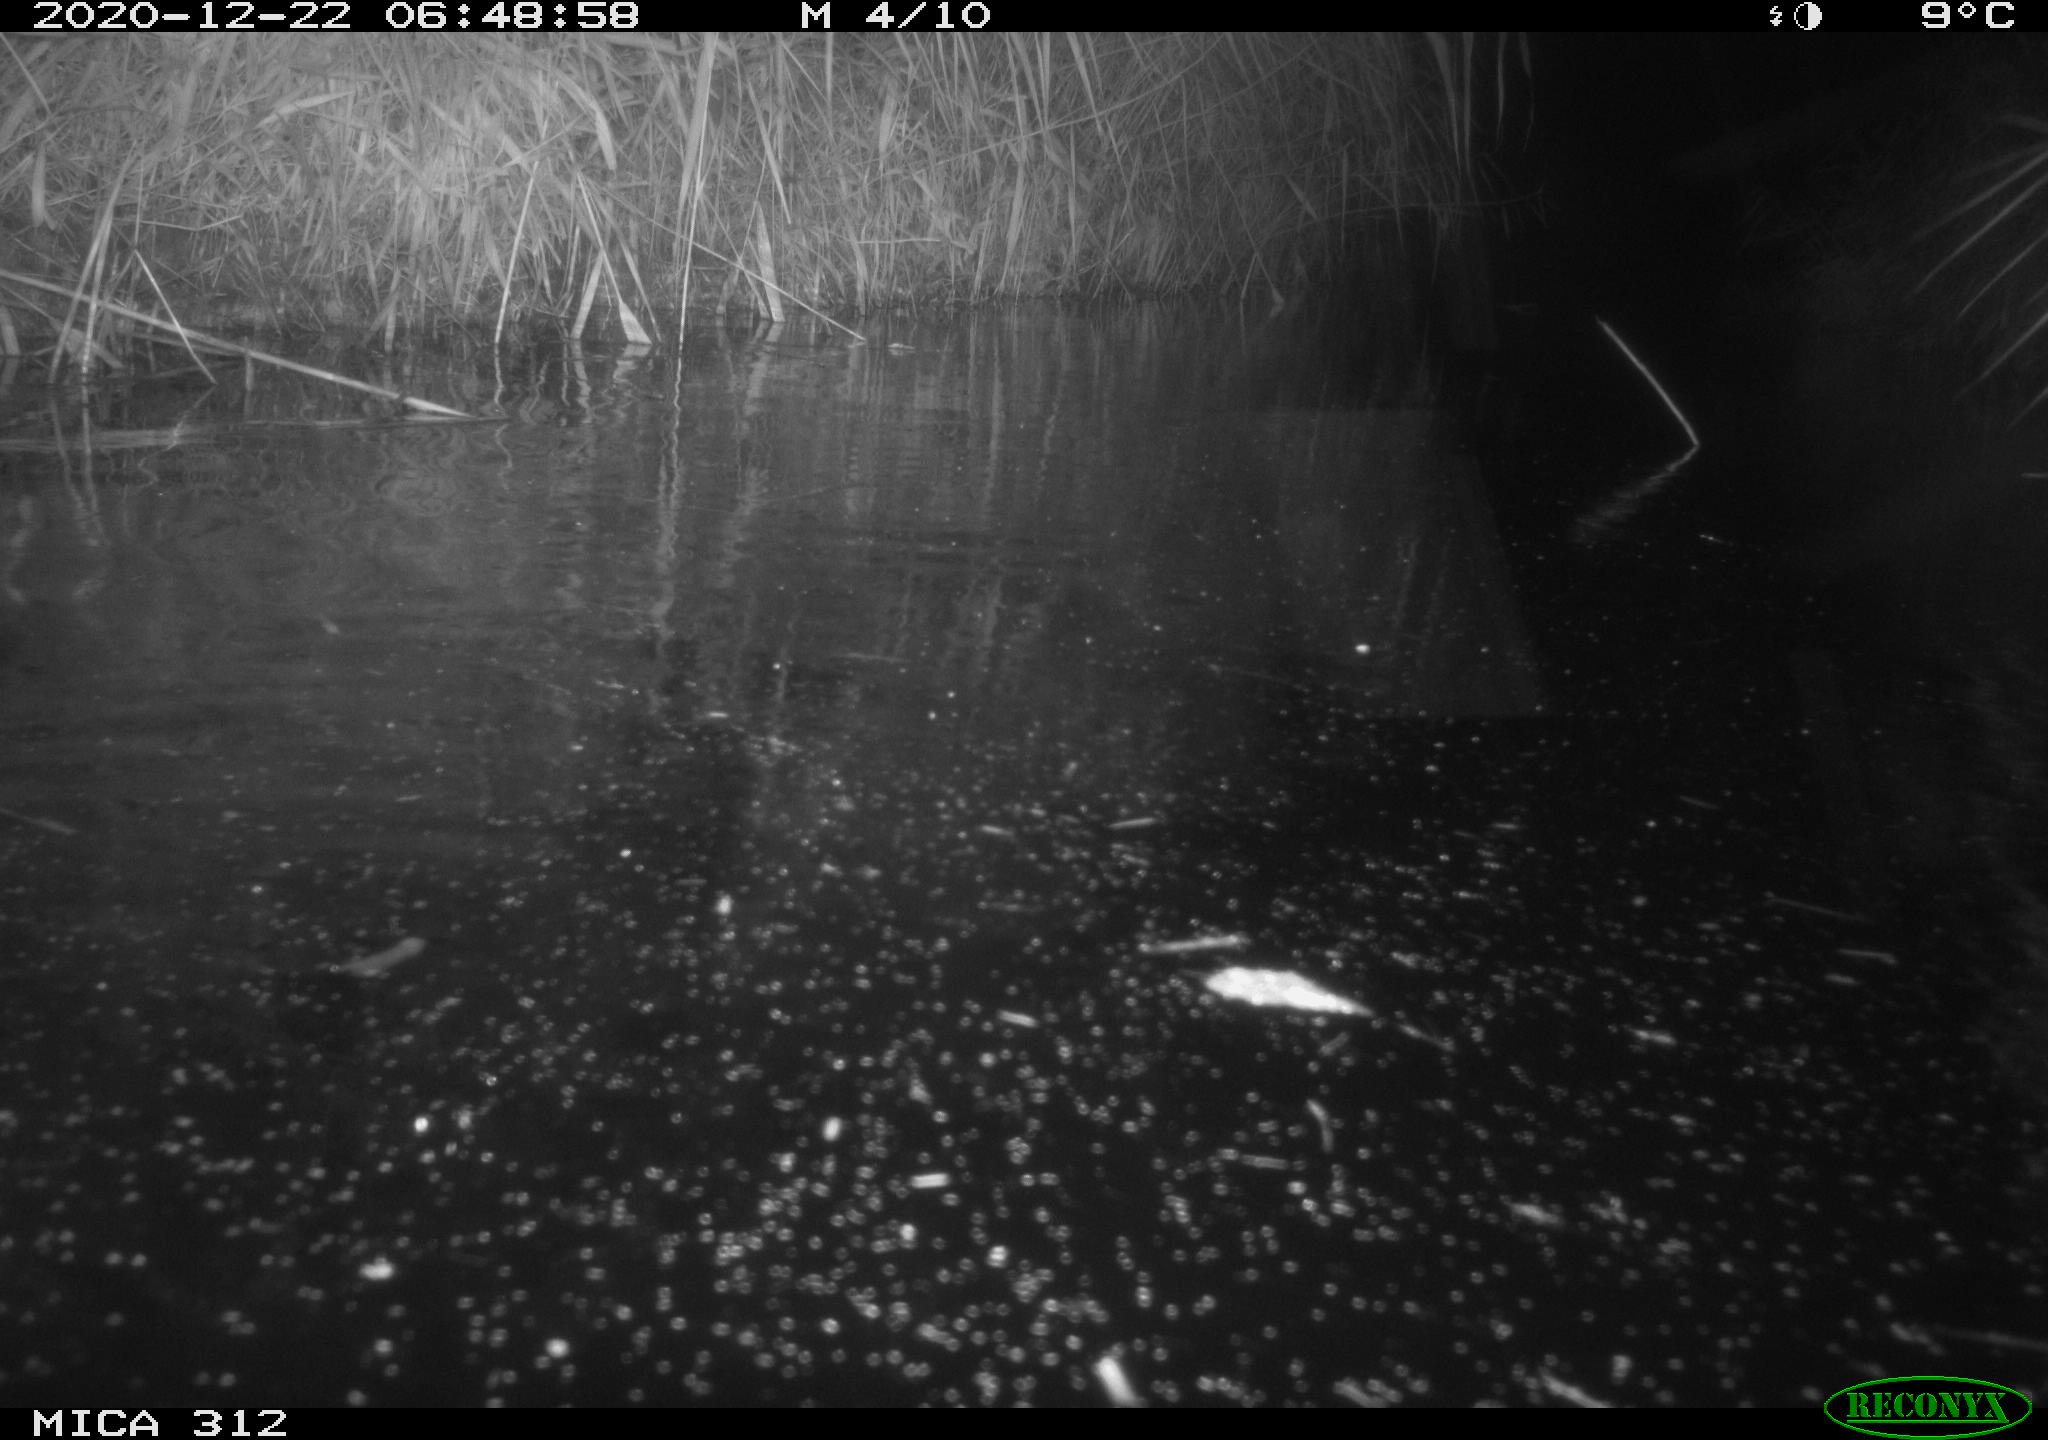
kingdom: Animalia
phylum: Chordata
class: Mammalia
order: Rodentia
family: Muridae
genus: Rattus
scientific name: Rattus norvegicus
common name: Brown rat
